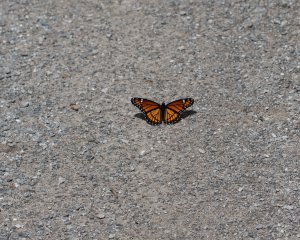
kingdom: Animalia
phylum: Arthropoda
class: Insecta
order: Lepidoptera
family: Nymphalidae
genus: Limenitis
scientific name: Limenitis archippus
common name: Viceroy
